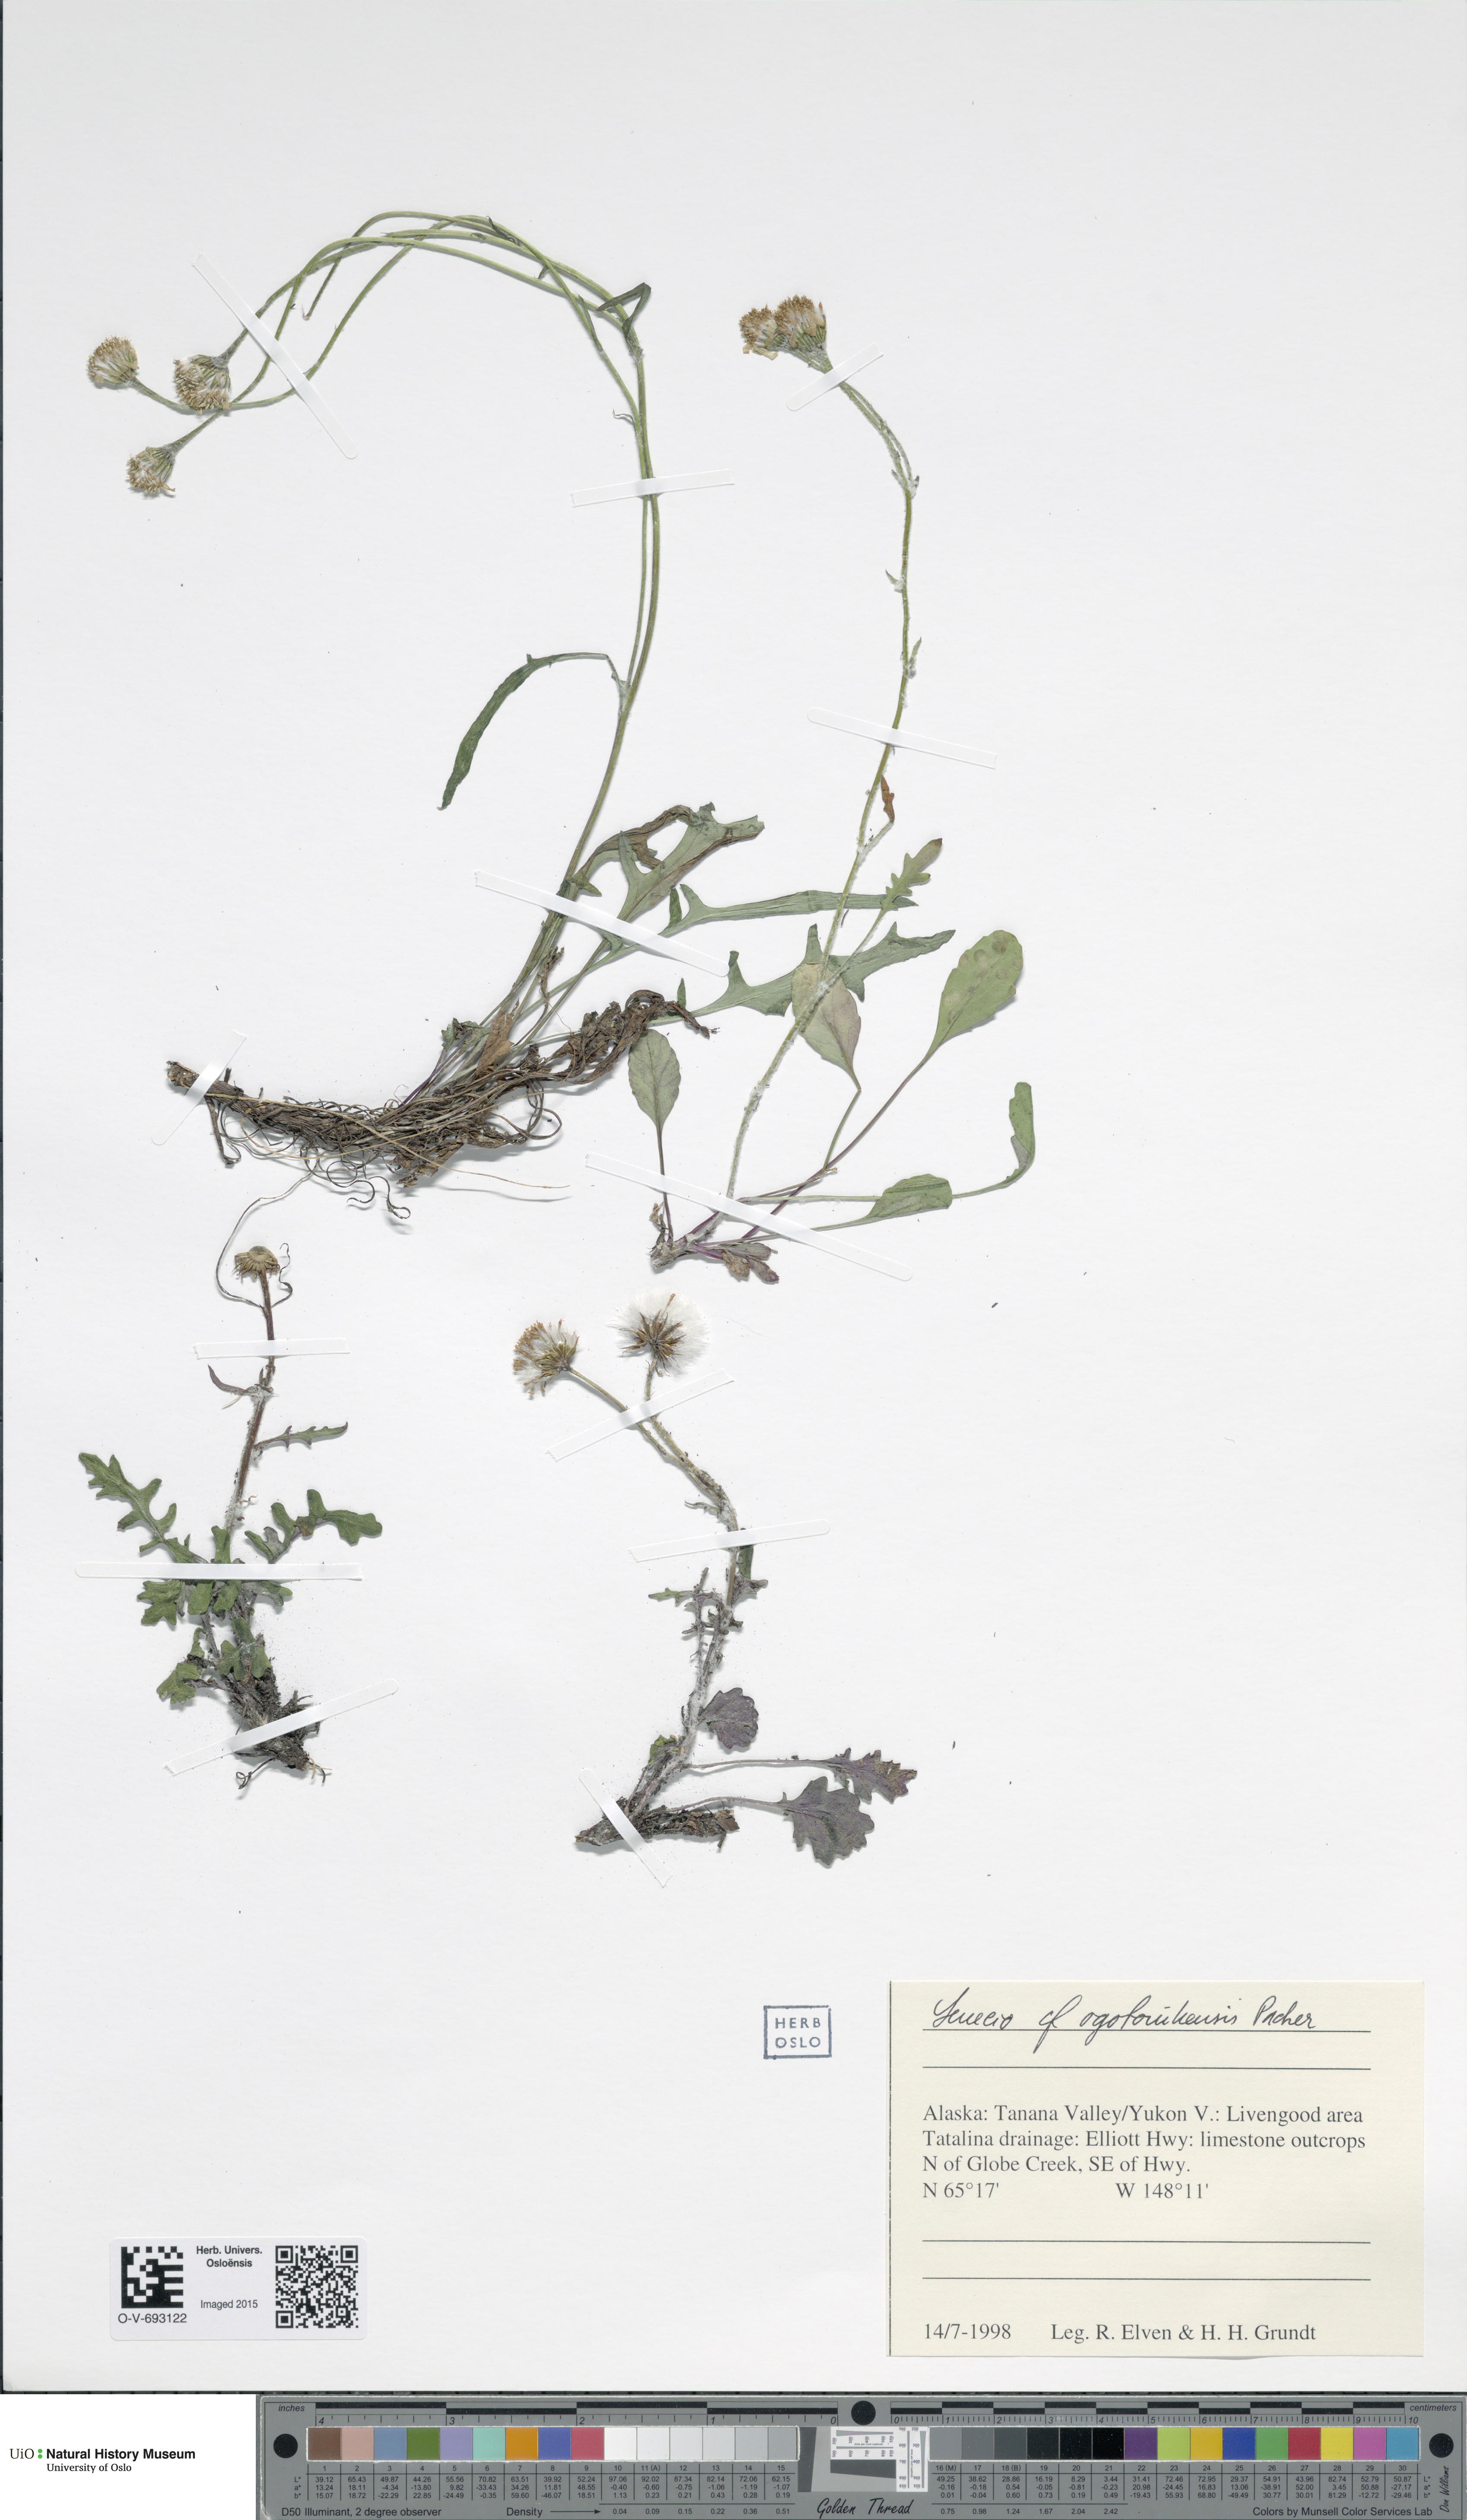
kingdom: Plantae
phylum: Tracheophyta
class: Magnoliopsida
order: Asterales
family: Asteraceae
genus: Packera
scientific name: Packera ogotorukensis
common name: Ogotoruk creek butterweed
